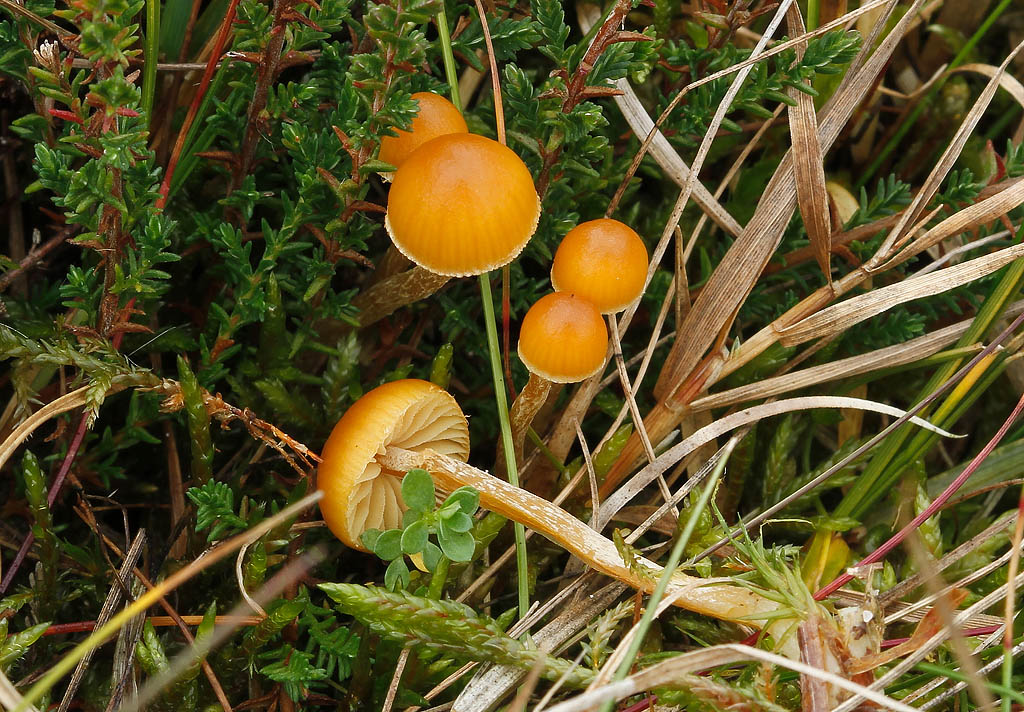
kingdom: Fungi
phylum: Basidiomycota
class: Agaricomycetes
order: Agaricales
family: Hymenogastraceae
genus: Galerina
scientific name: Galerina pumila
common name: honninggul hjelmhat
